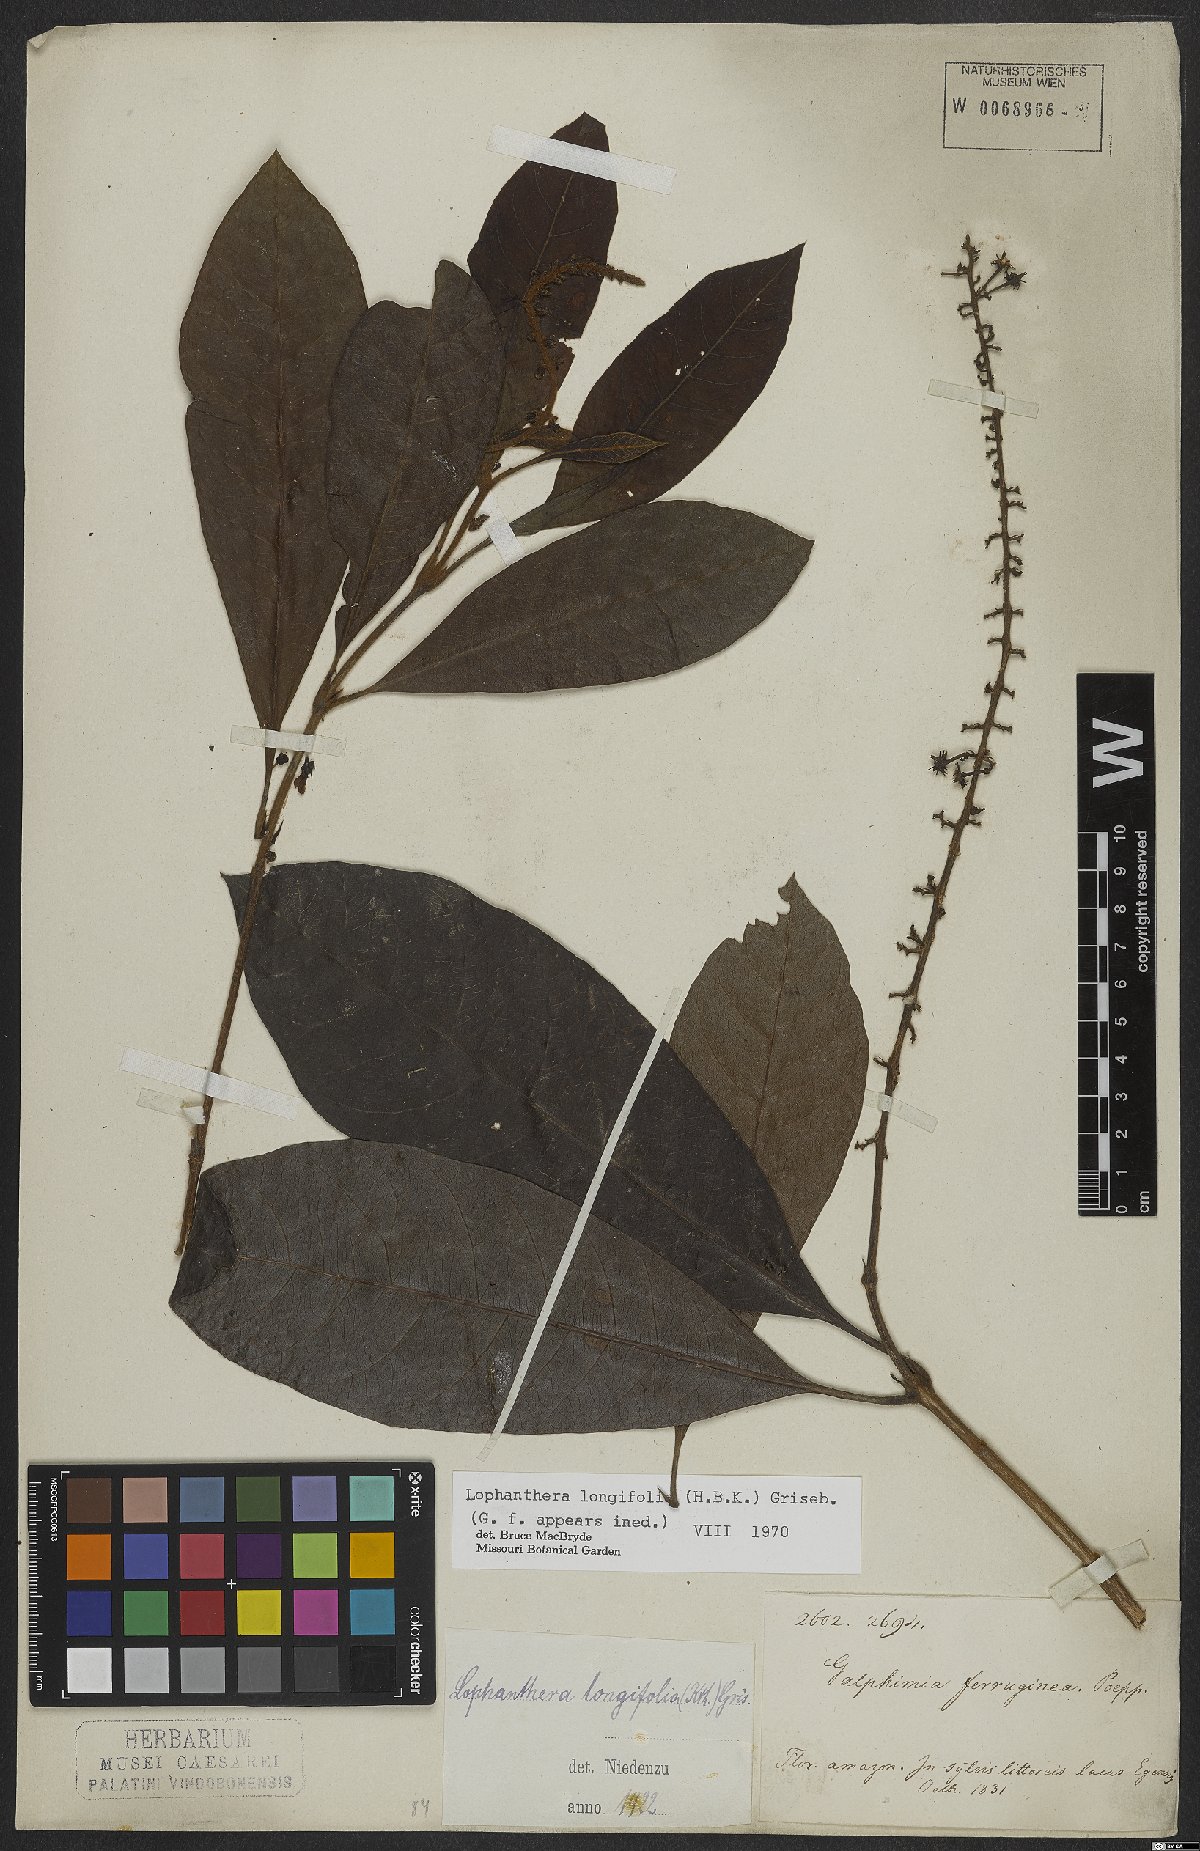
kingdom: Plantae
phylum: Tracheophyta
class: Magnoliopsida
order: Malpighiales
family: Malpighiaceae
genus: Lophanthera
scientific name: Lophanthera longifolia
